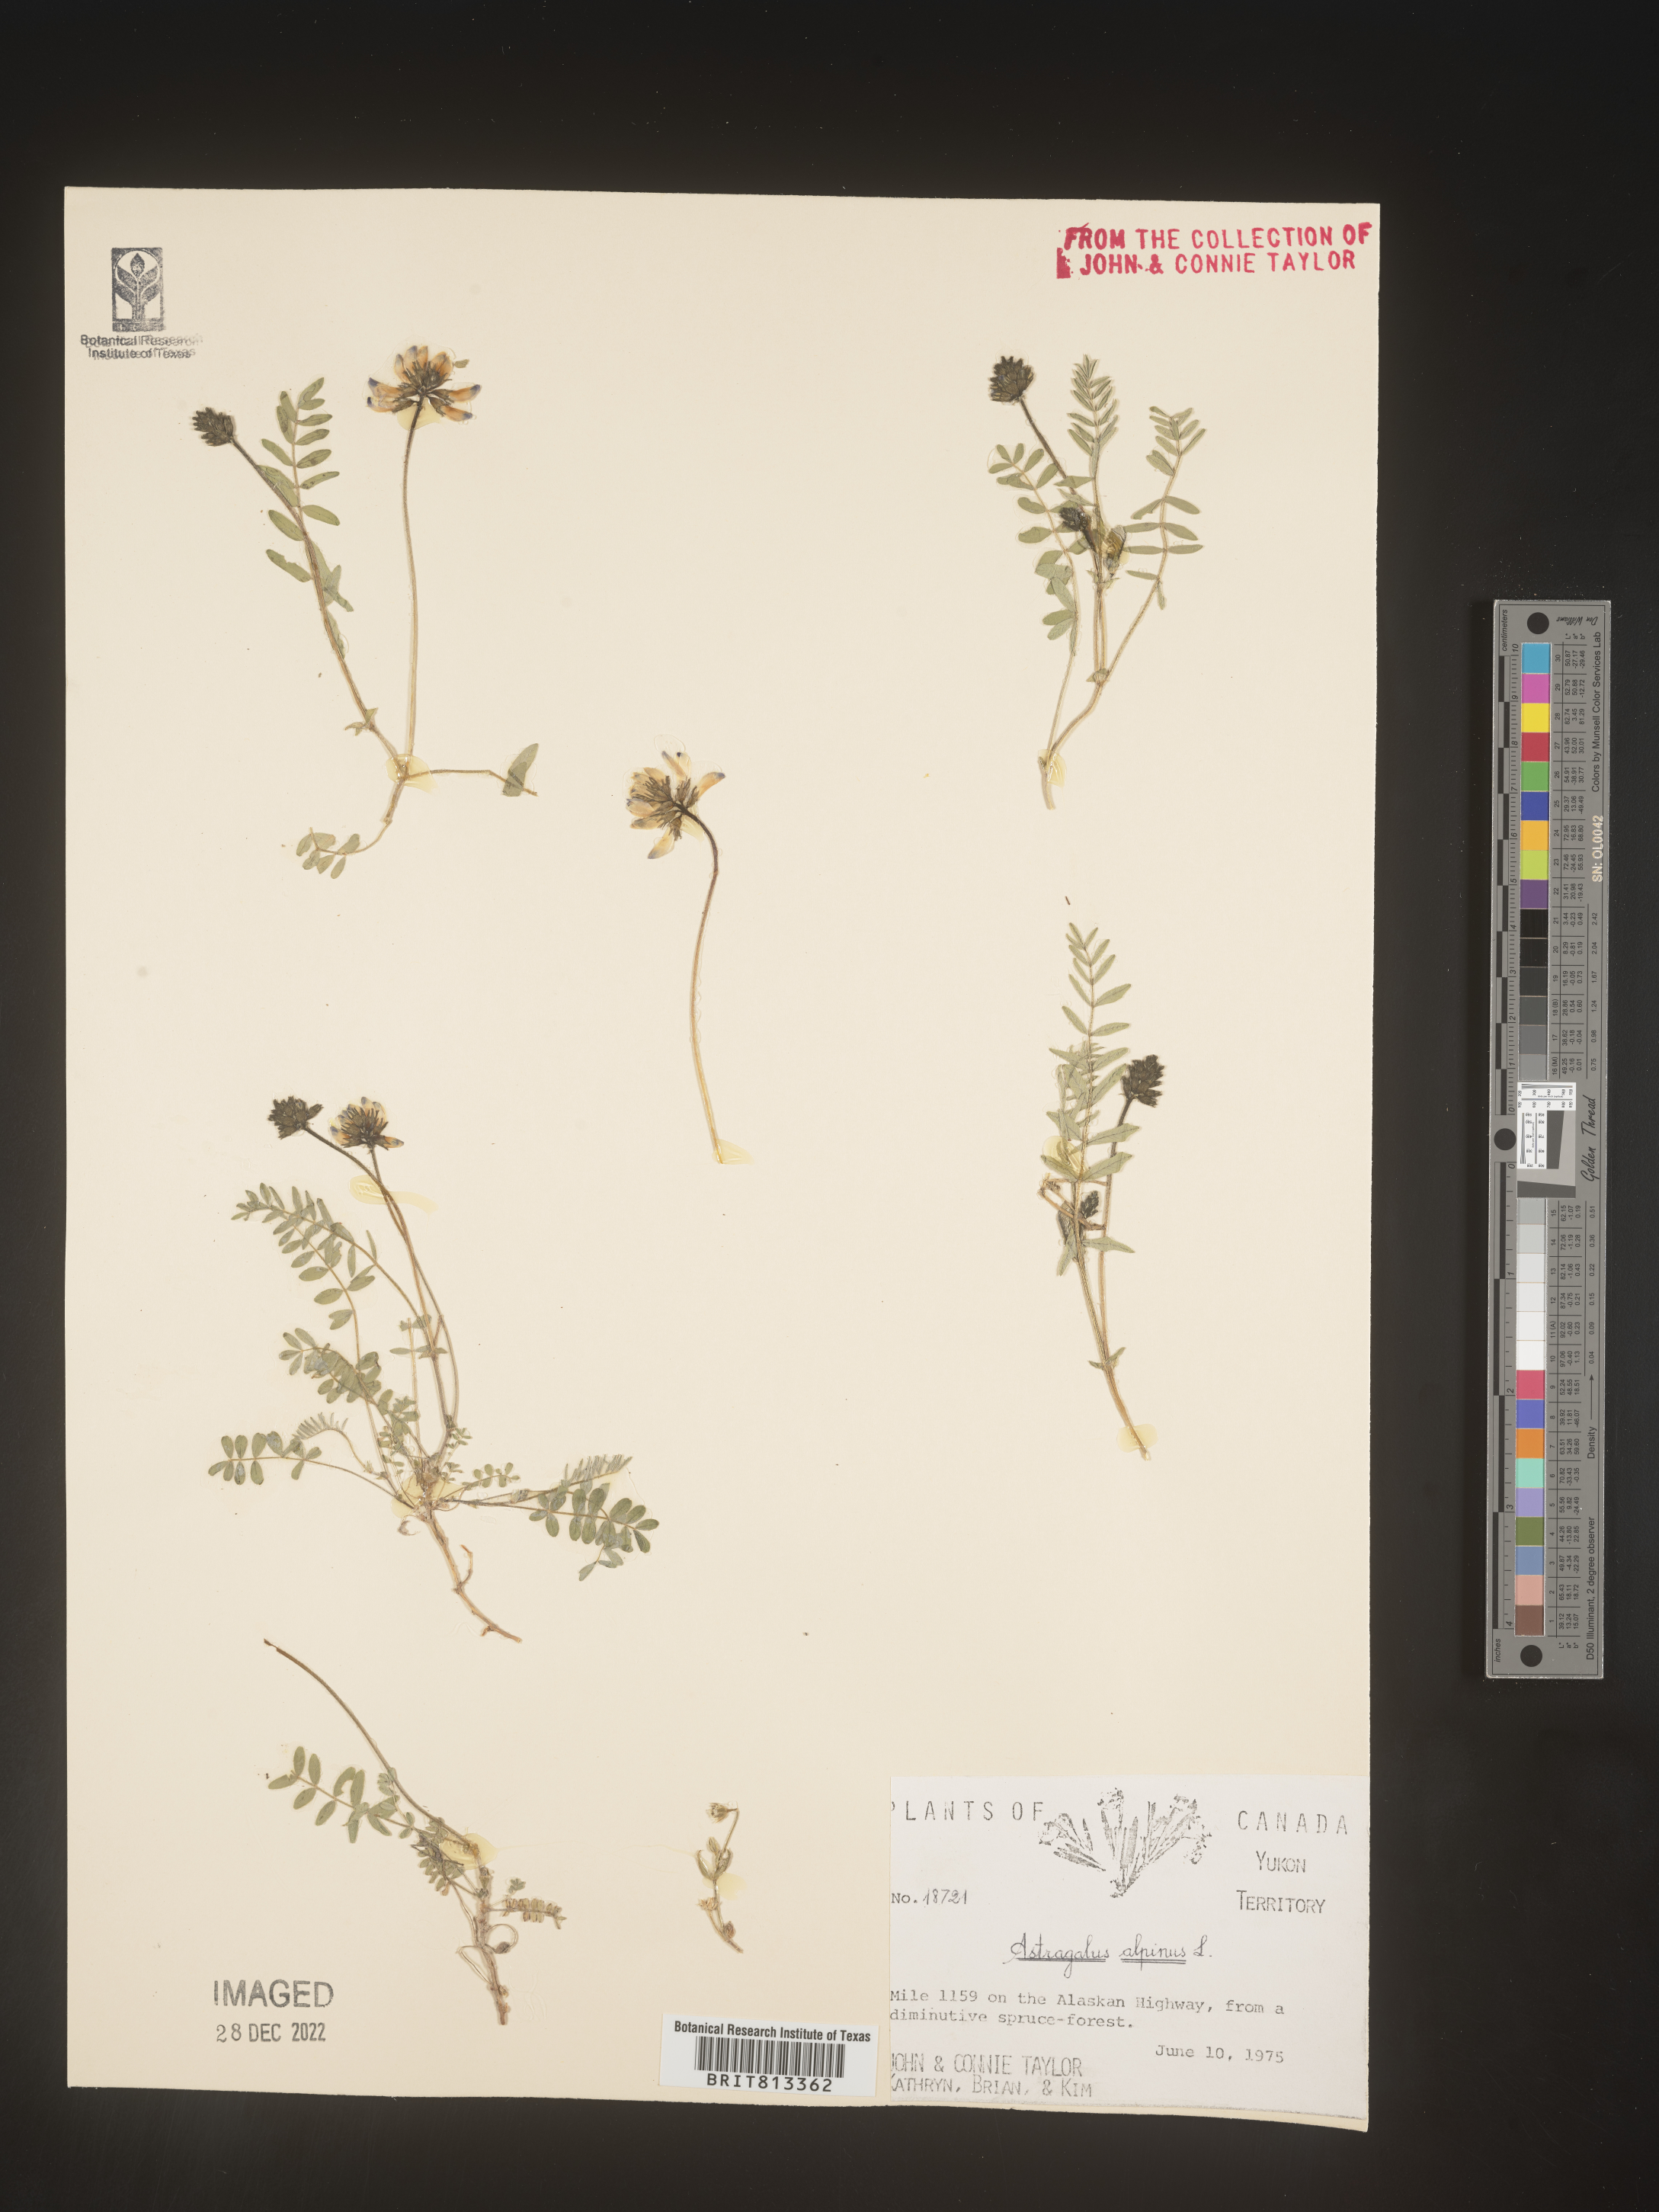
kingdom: Plantae
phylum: Tracheophyta
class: Magnoliopsida
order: Fabales
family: Fabaceae
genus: Astragalus
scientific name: Astragalus alpinus
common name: Alpine milk-vetch
